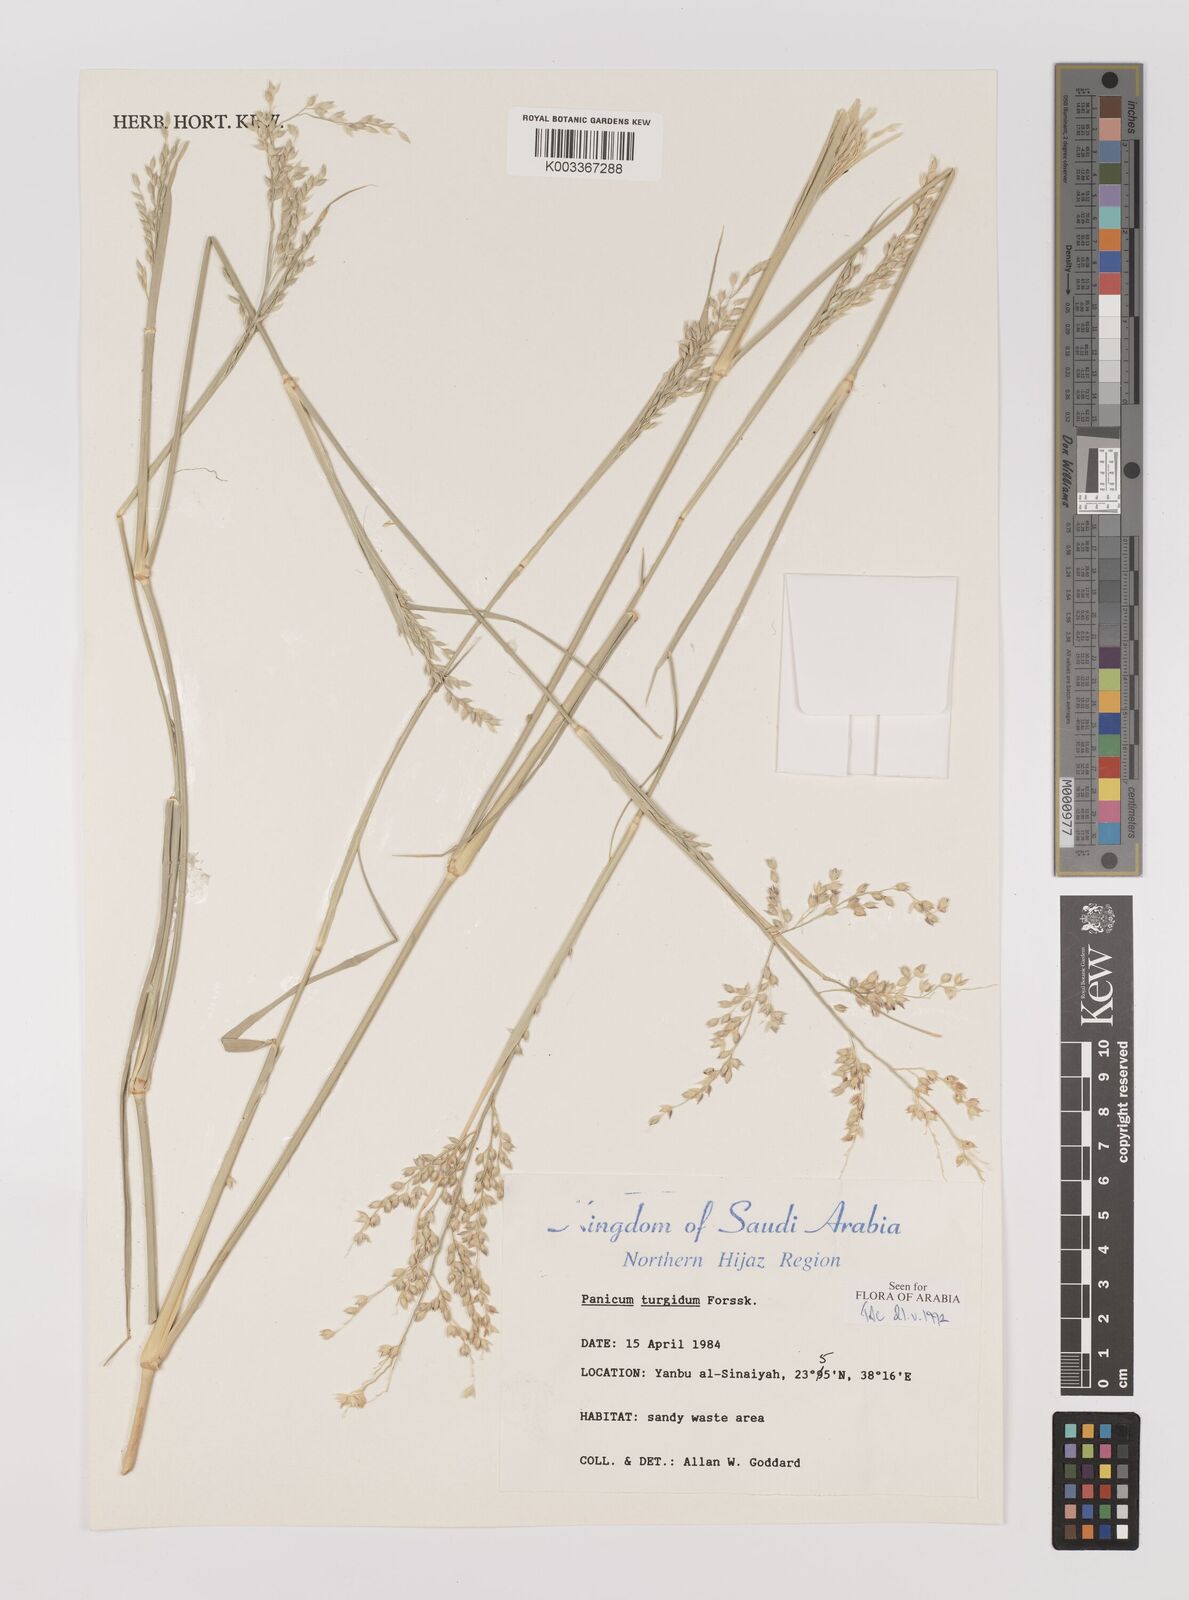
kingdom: Plantae
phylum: Tracheophyta
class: Liliopsida
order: Poales
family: Poaceae
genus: Panicum
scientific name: Panicum turgidum
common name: Desert grass
